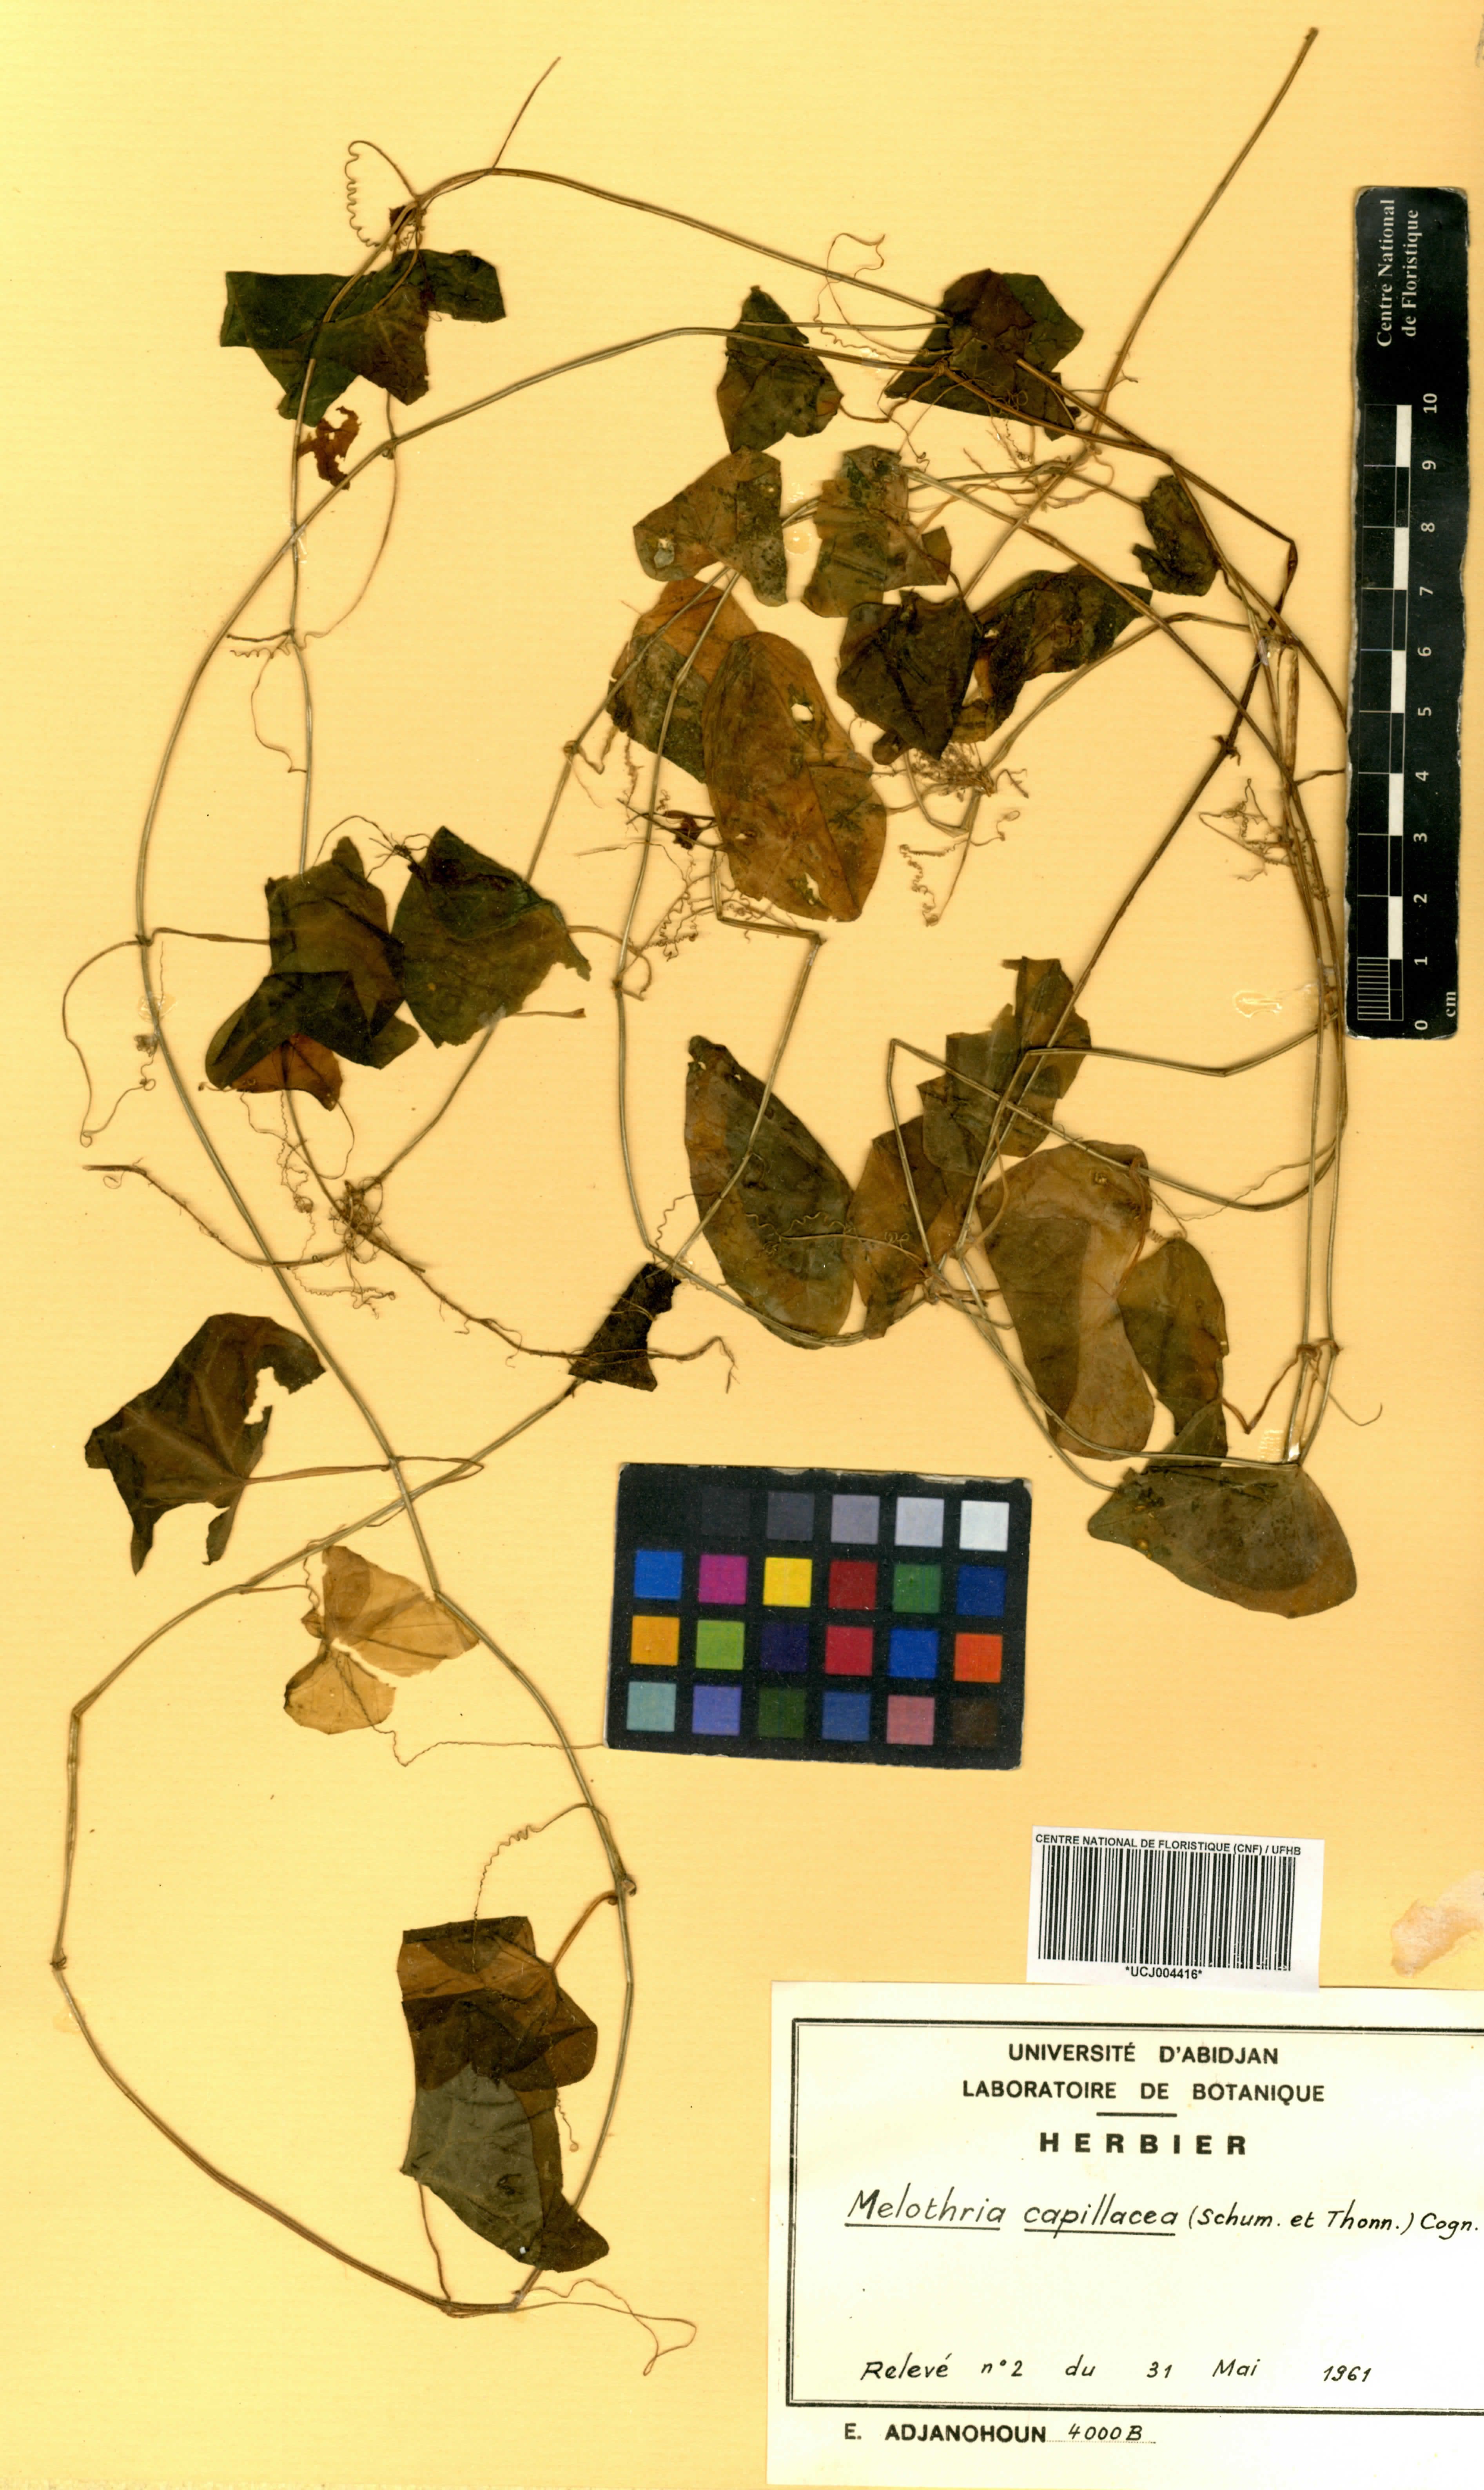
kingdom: Plantae
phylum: Tracheophyta
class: Magnoliopsida
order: Cucurbitales
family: Cucurbitaceae
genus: Zehneria
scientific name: Zehneria capillacea
